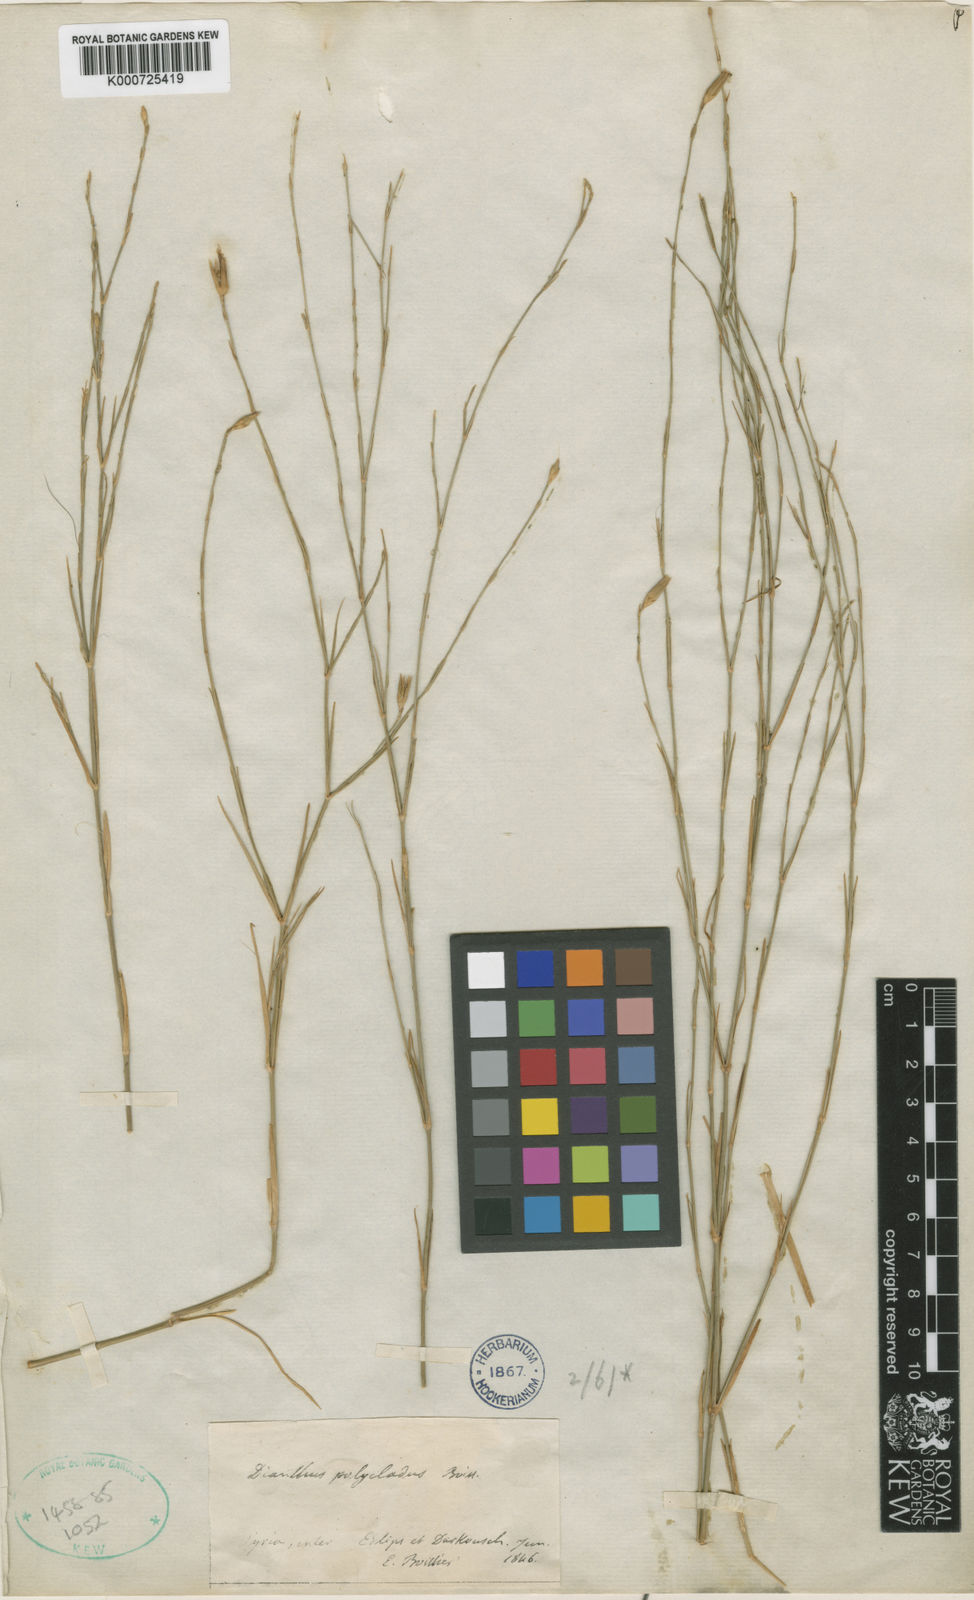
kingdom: Plantae
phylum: Tracheophyta
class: Magnoliopsida
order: Caryophyllales
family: Caryophyllaceae
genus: Dianthus
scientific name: Dianthus strictus
